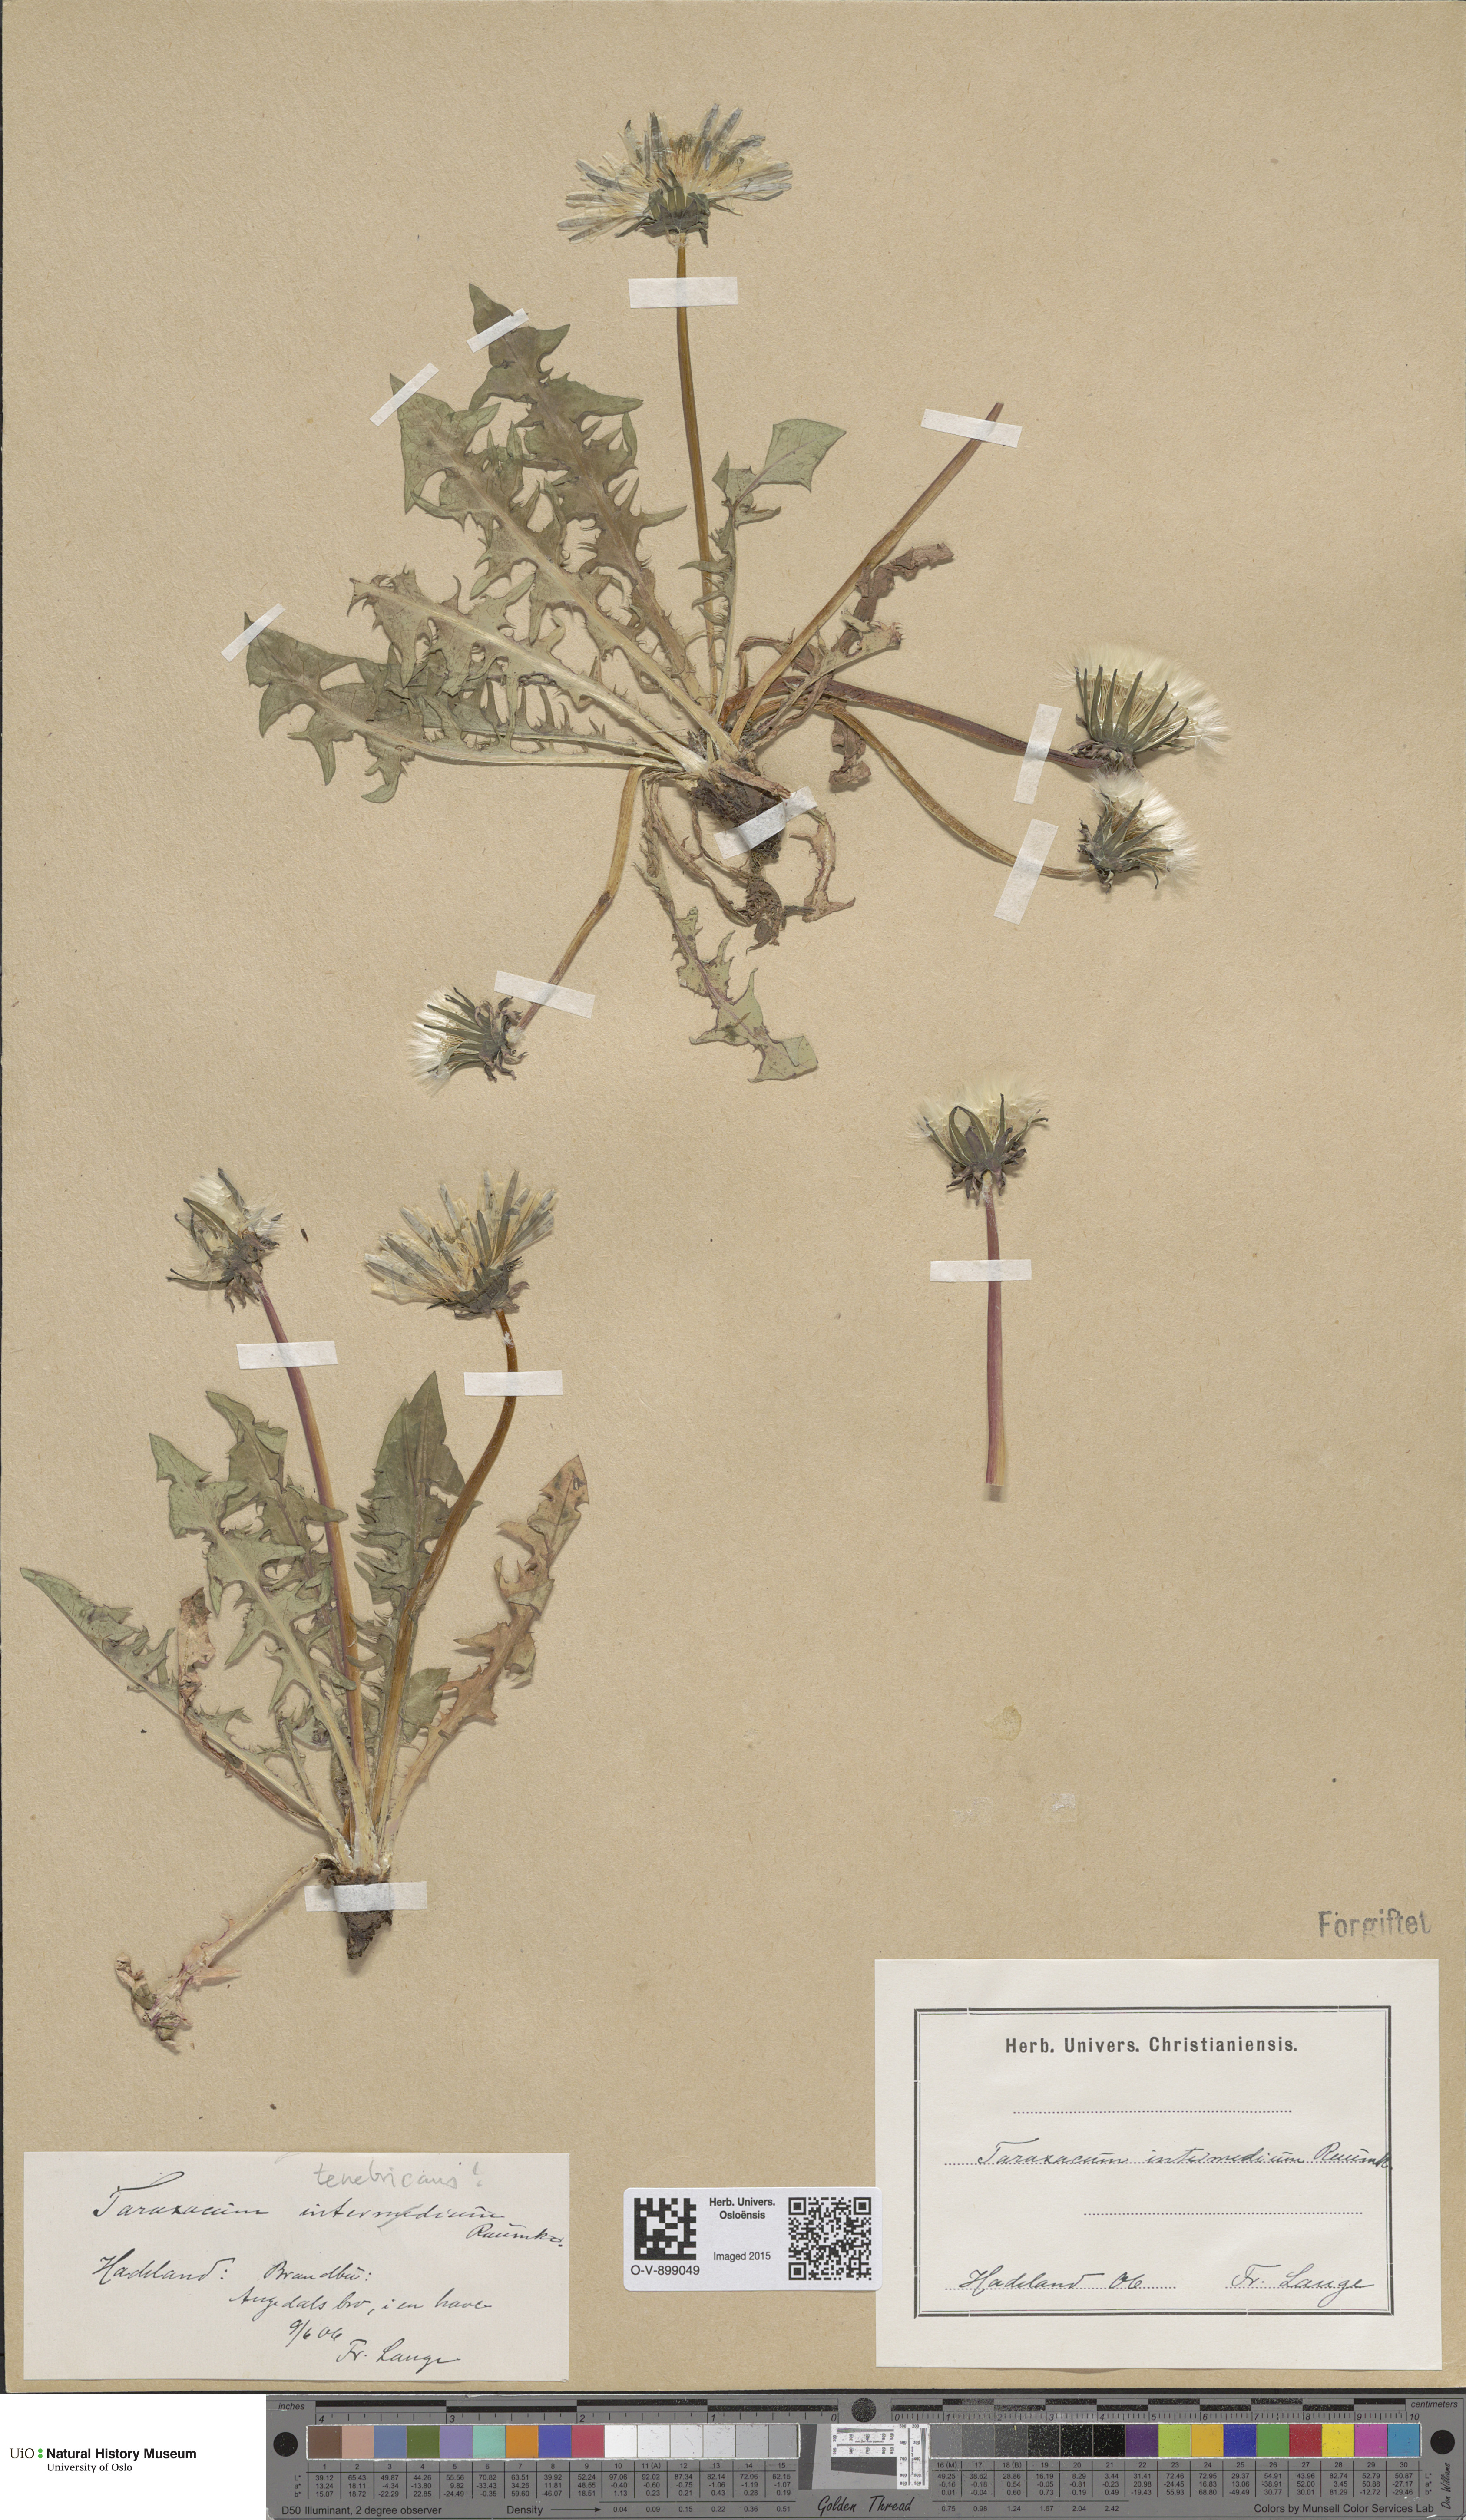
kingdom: Plantae
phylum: Tracheophyta
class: Magnoliopsida
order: Asterales
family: Asteraceae
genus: Taraxacum
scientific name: Taraxacum intermedium
